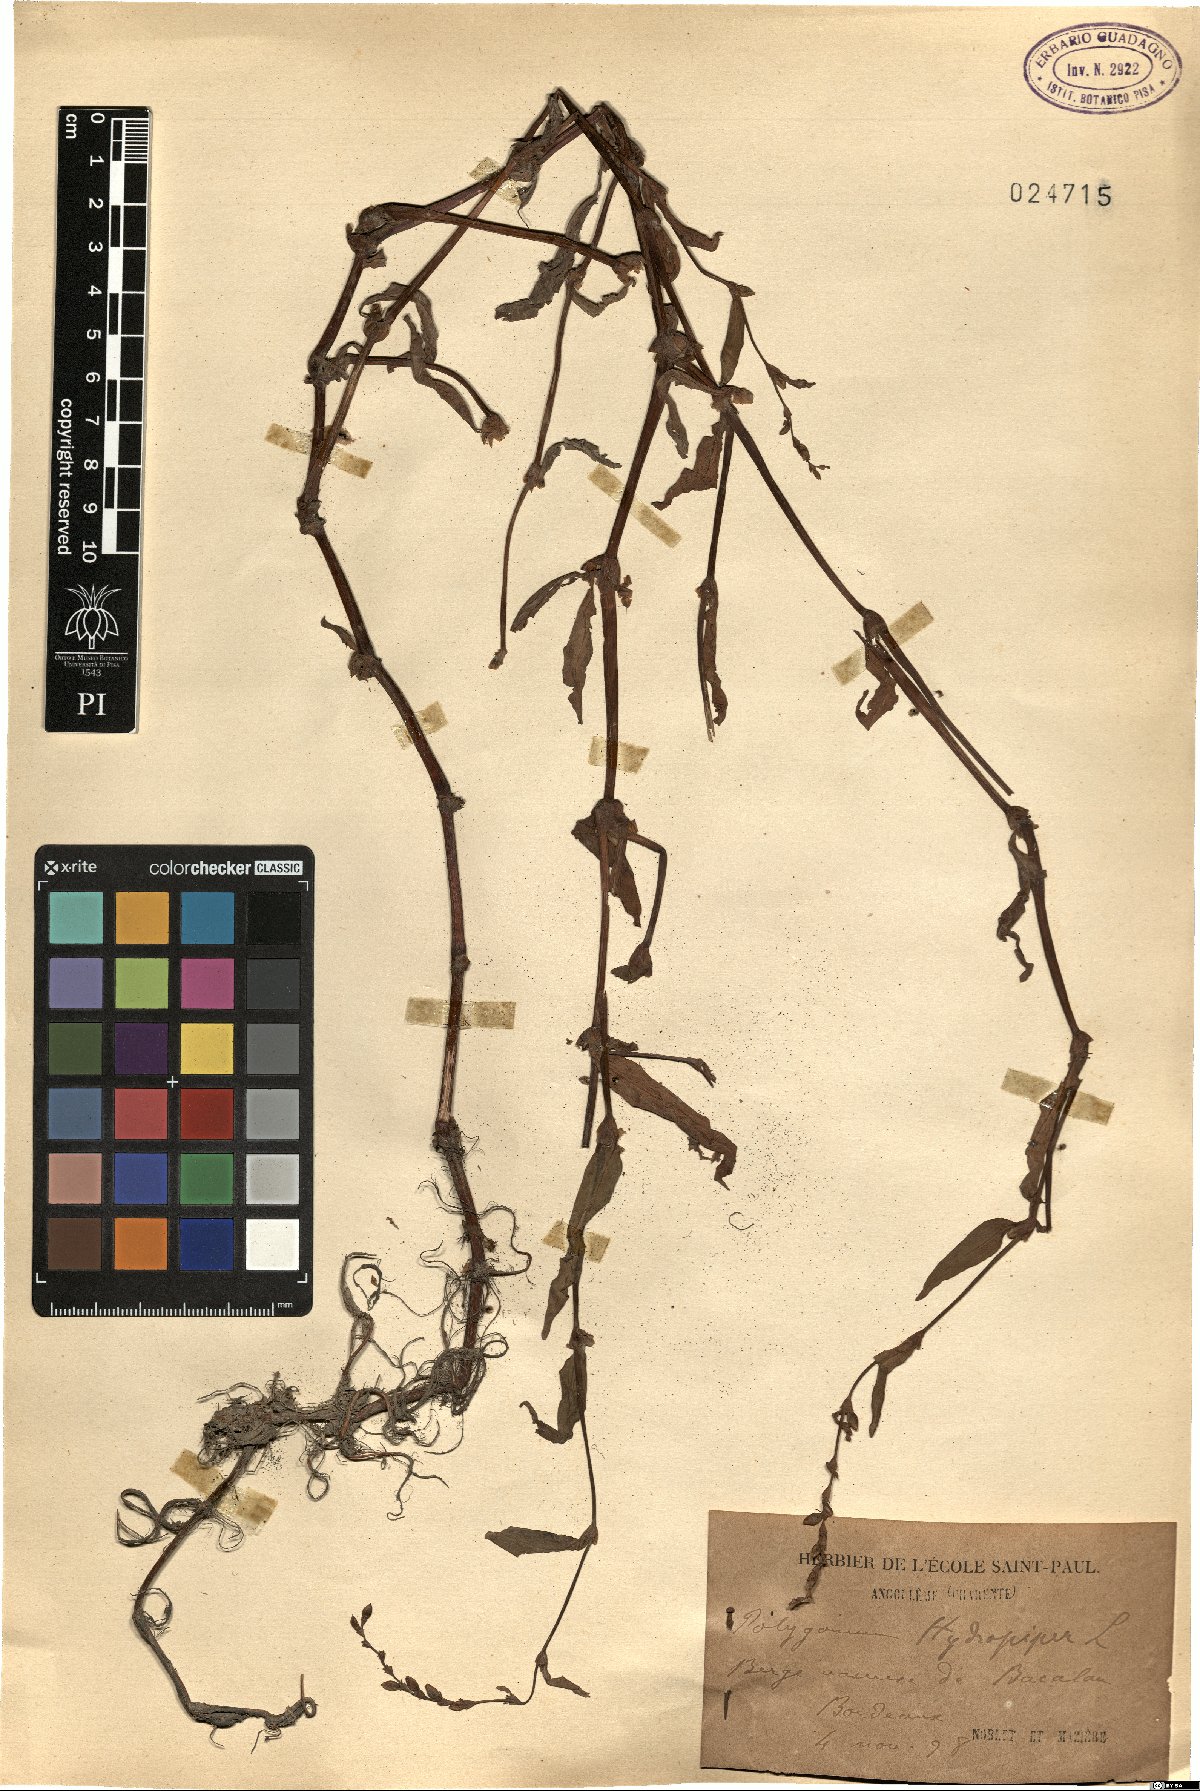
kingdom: Plantae
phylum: Tracheophyta
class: Magnoliopsida
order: Caryophyllales
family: Polygonaceae
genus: Persicaria
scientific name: Persicaria hydropiper
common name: Water-pepper
